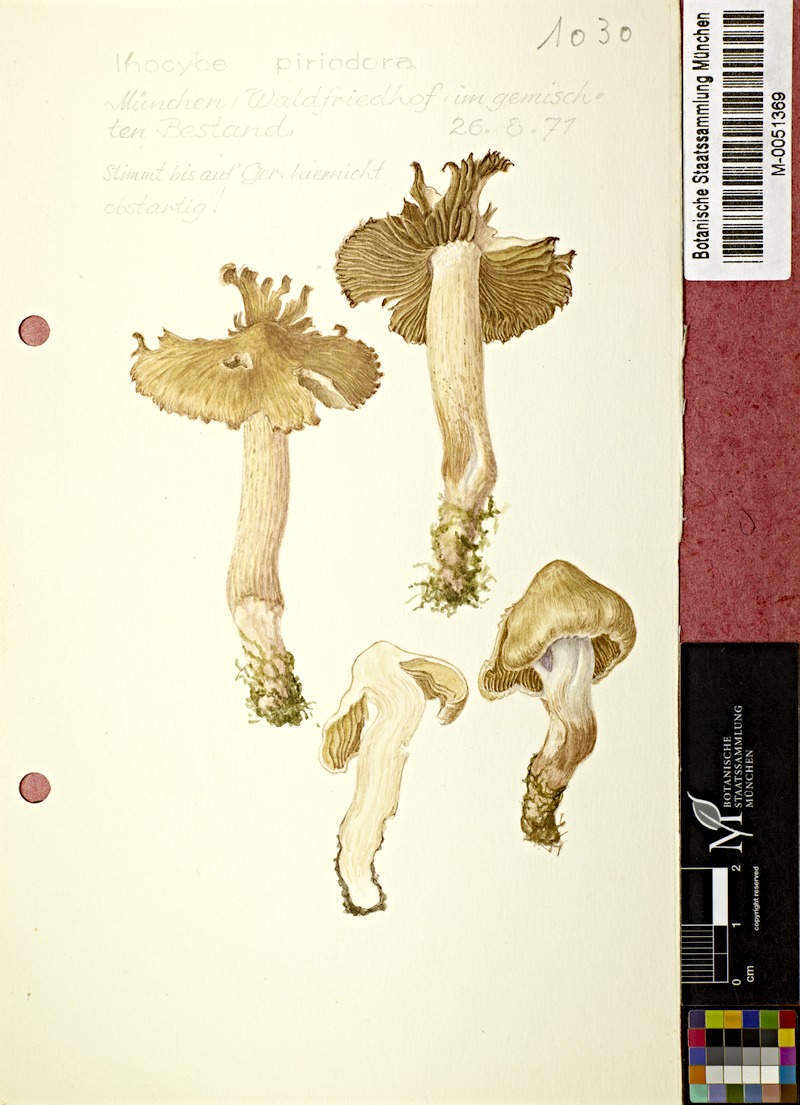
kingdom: Fungi
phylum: Basidiomycota
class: Agaricomycetes
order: Agaricales
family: Inocybaceae
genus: Inocybe
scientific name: Inocybe fraudans
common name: Pear fibrecap
